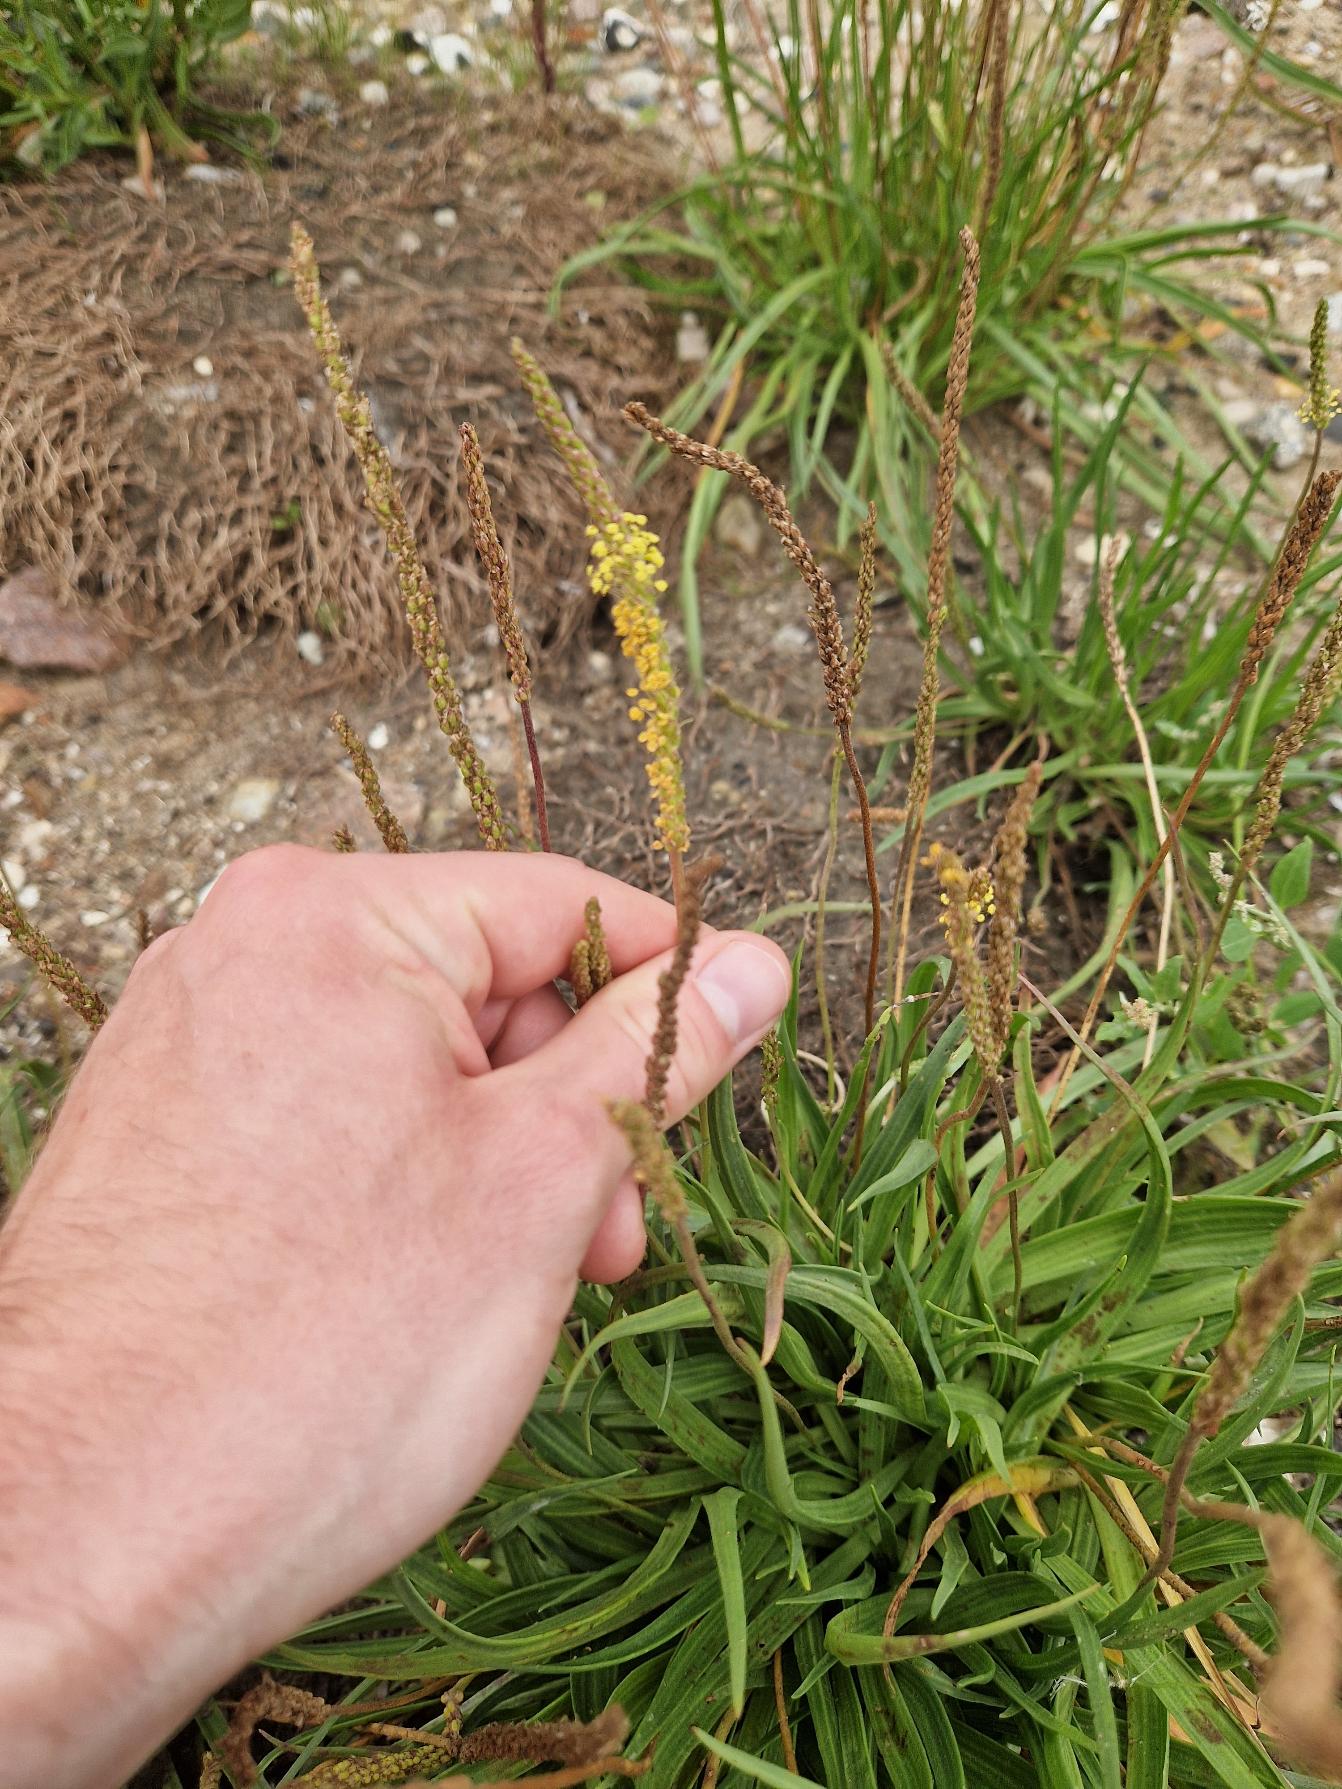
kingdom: Plantae
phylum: Tracheophyta
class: Magnoliopsida
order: Lamiales
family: Plantaginaceae
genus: Plantago
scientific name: Plantago maritima
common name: Strand-vejbred
